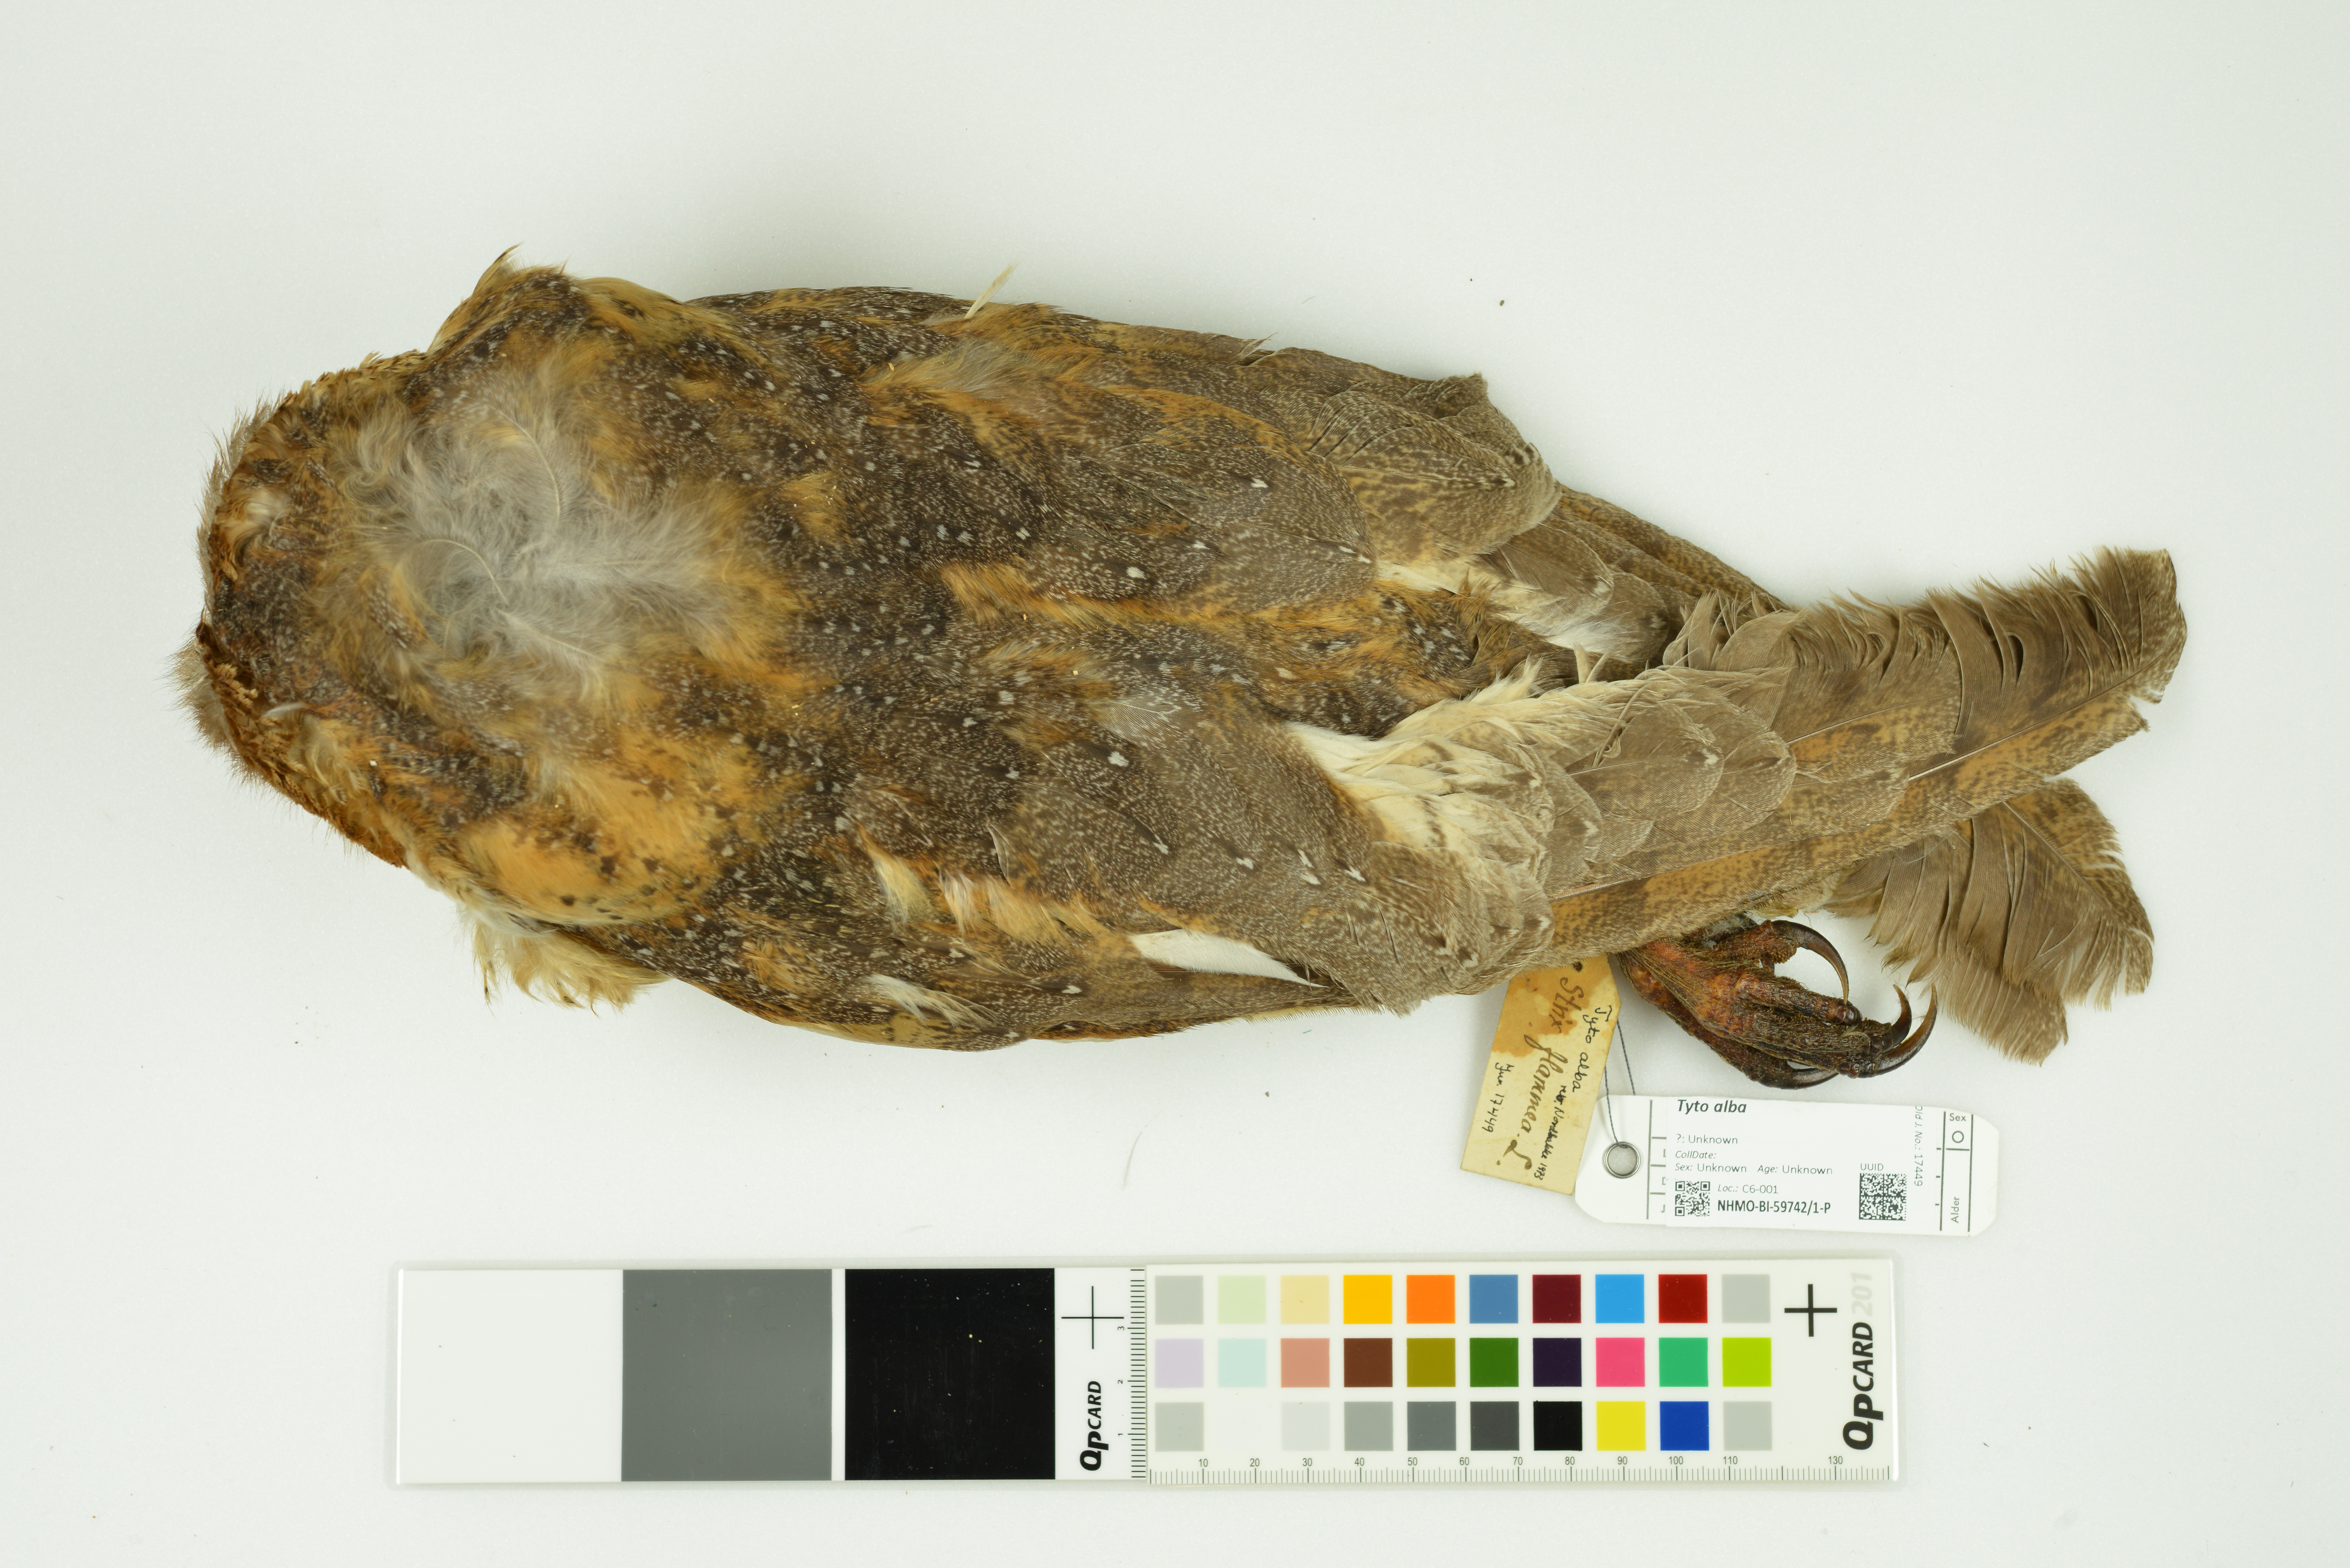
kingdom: Animalia
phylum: Chordata
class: Aves
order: Strigiformes
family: Tytonidae
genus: Tyto
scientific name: Tyto alba
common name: Barn owl
